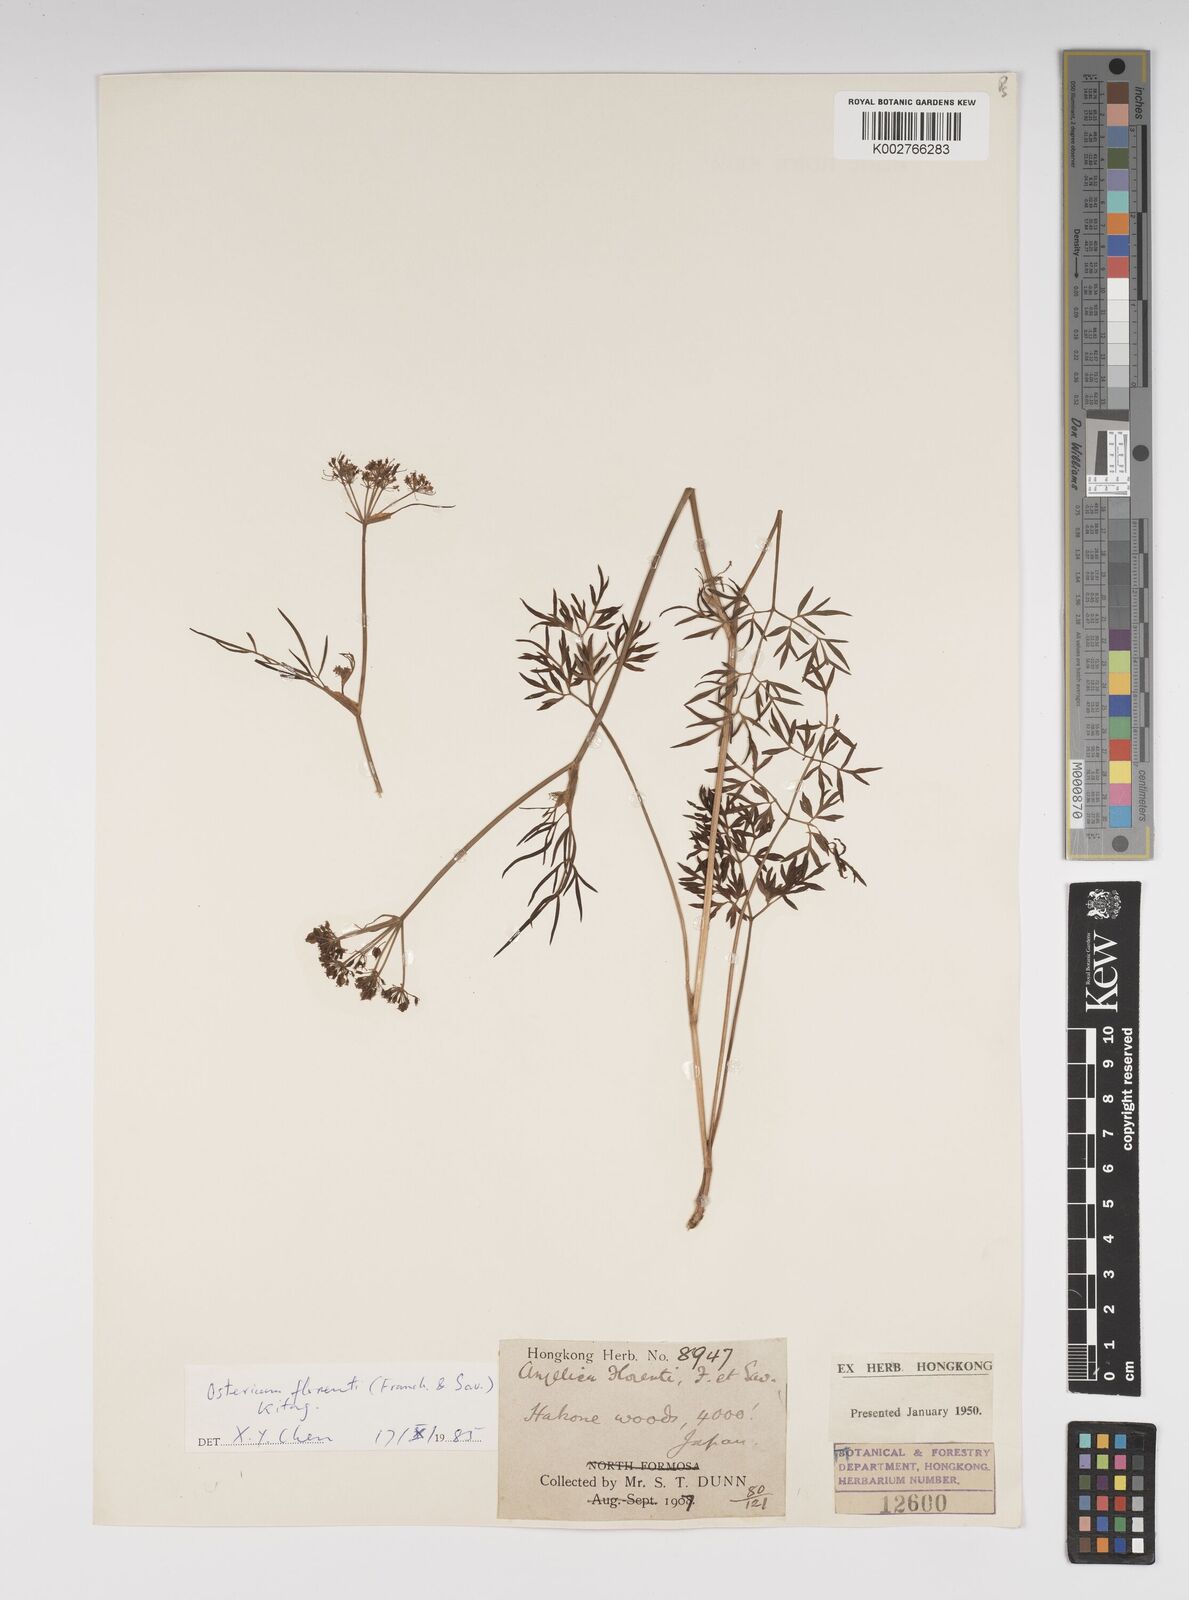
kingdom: Plantae
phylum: Tracheophyta
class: Magnoliopsida
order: Apiales
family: Apiaceae
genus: Ostericum
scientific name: Ostericum florenti
